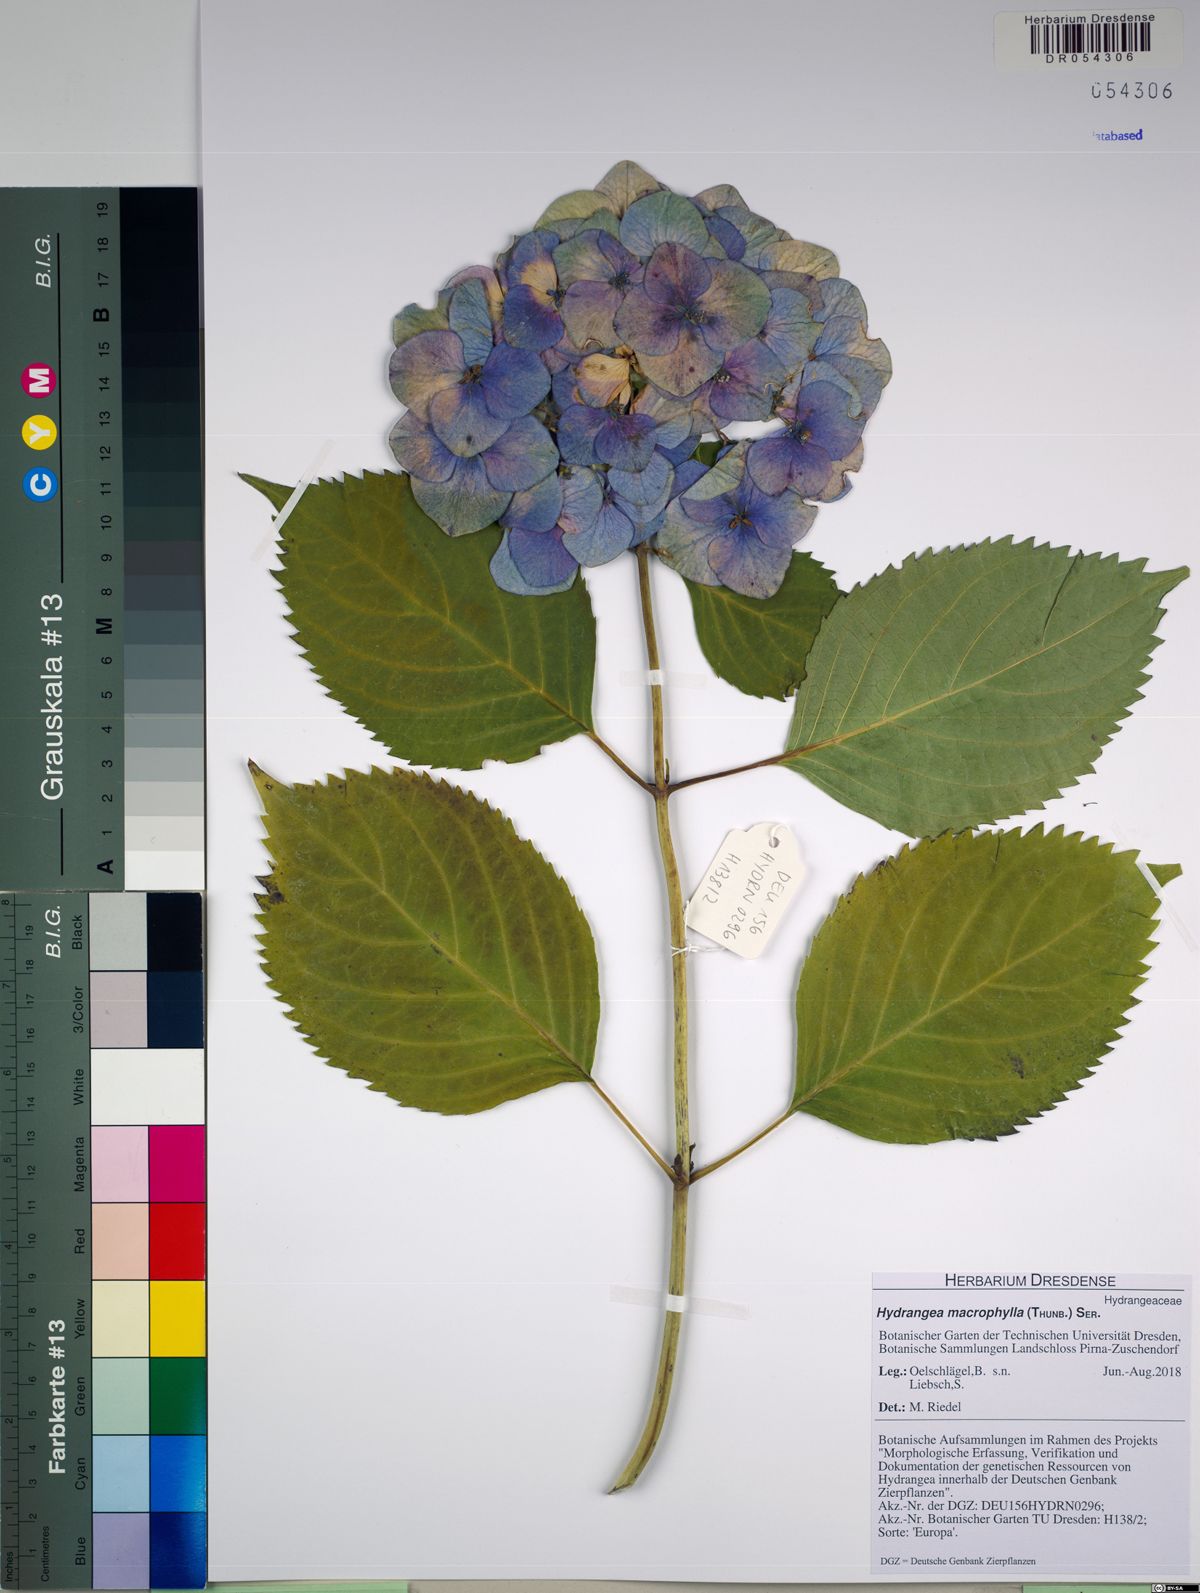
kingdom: Plantae
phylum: Tracheophyta
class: Magnoliopsida
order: Cornales
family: Hydrangeaceae
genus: Hydrangea
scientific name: Hydrangea macrophylla
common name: Hydrangea
